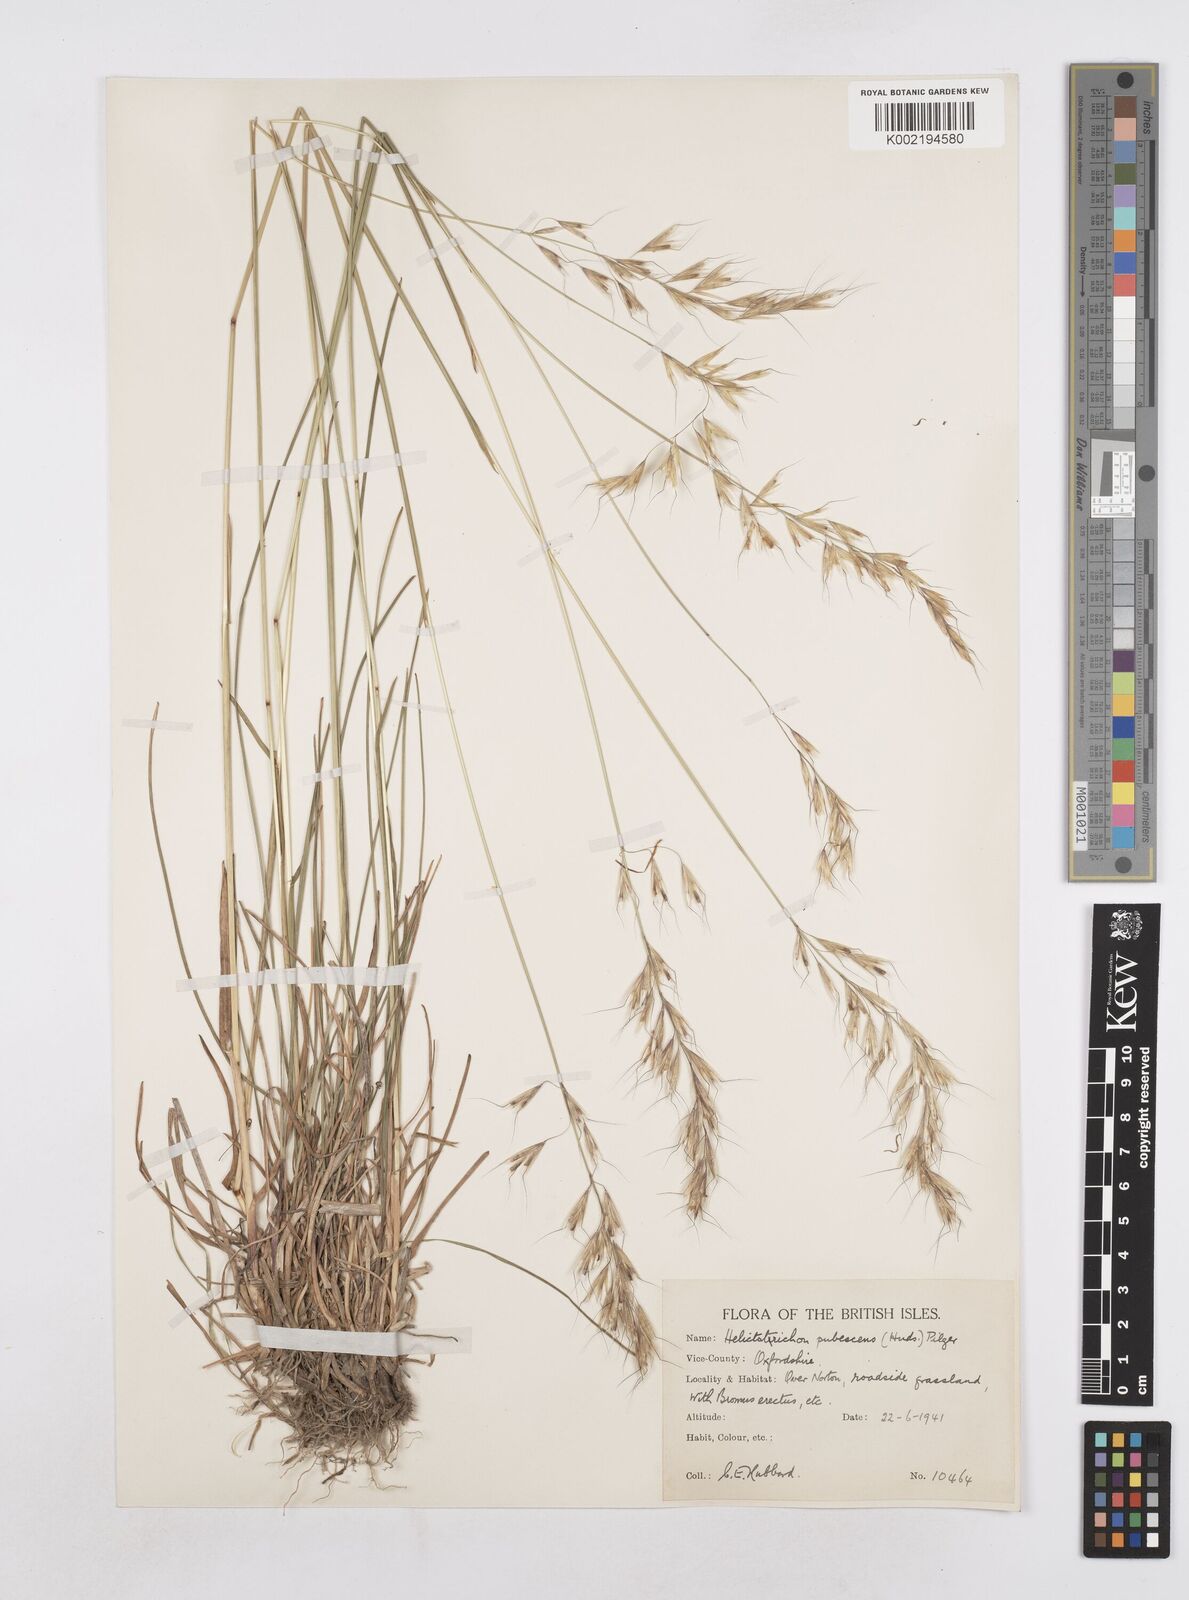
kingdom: Plantae
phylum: Tracheophyta
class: Liliopsida
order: Poales
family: Poaceae
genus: Avenula
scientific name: Avenula pubescens
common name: Downy alpine oatgrass
